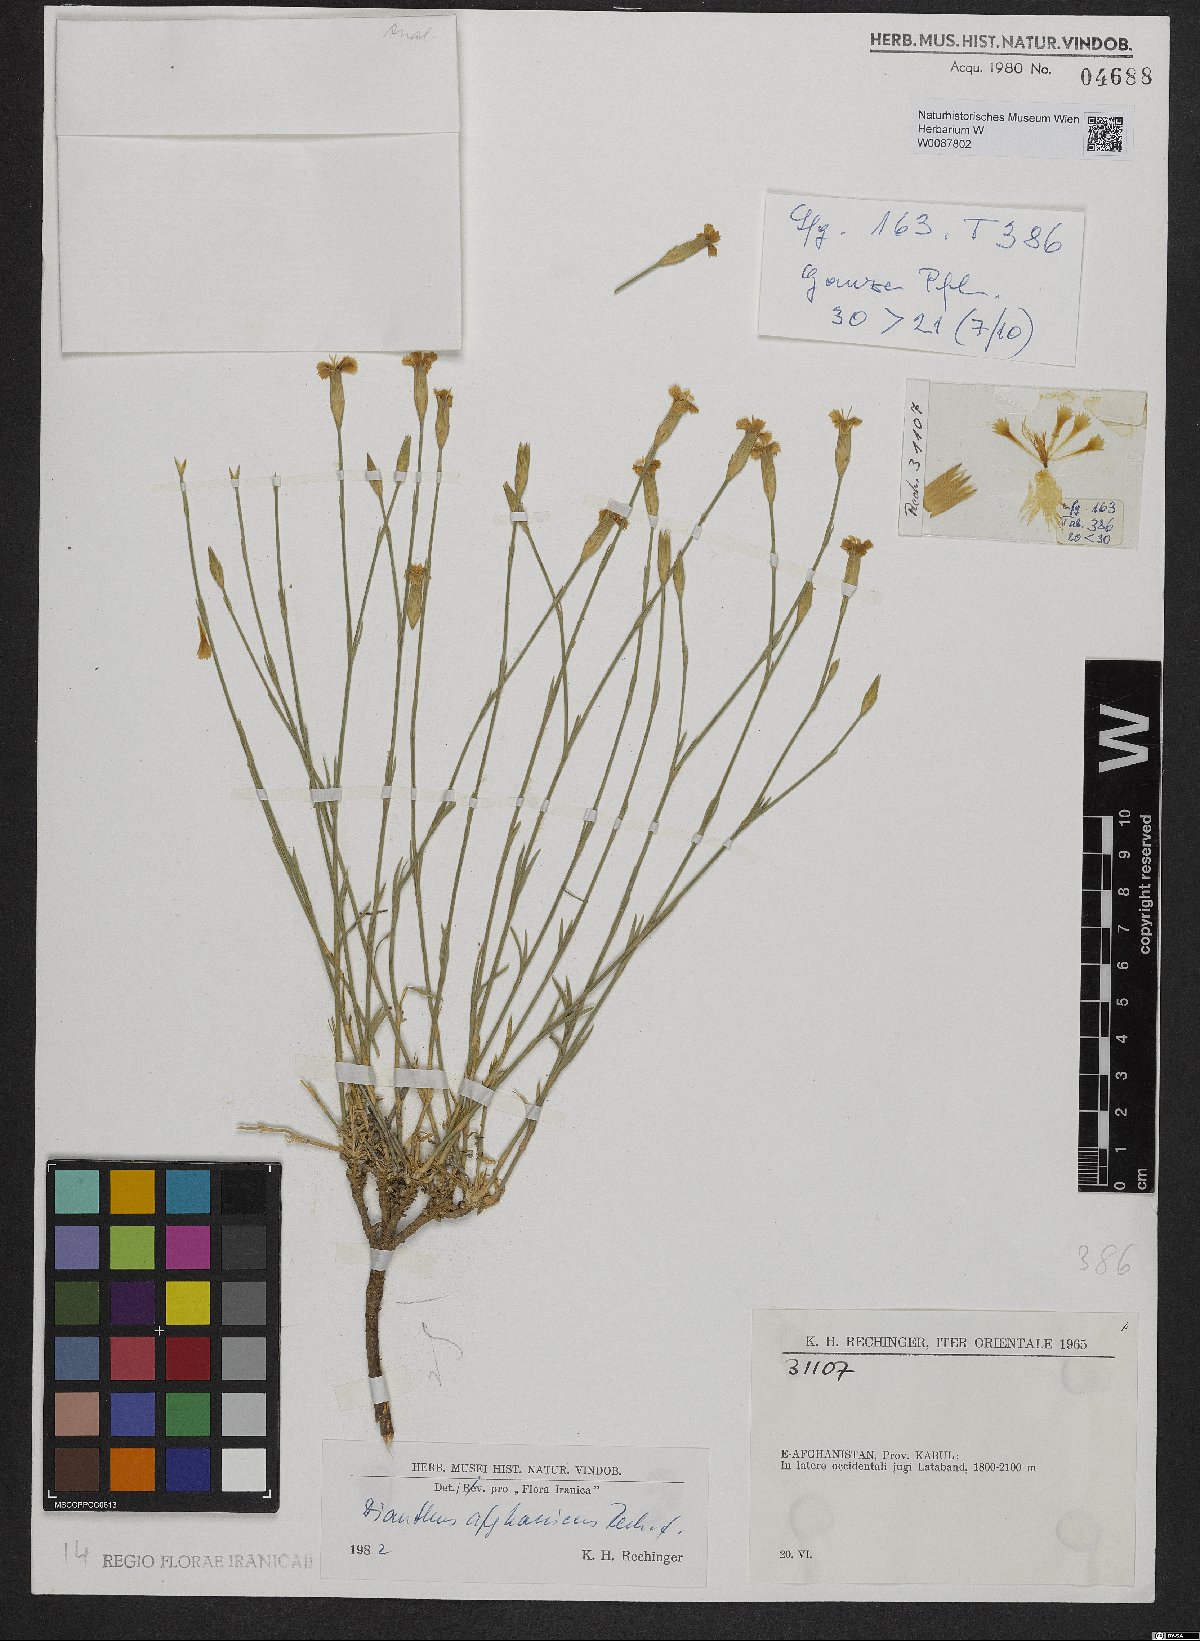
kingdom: Plantae
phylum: Tracheophyta
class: Magnoliopsida
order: Caryophyllales
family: Caryophyllaceae
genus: Dianthus
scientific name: Dianthus afghanicus
